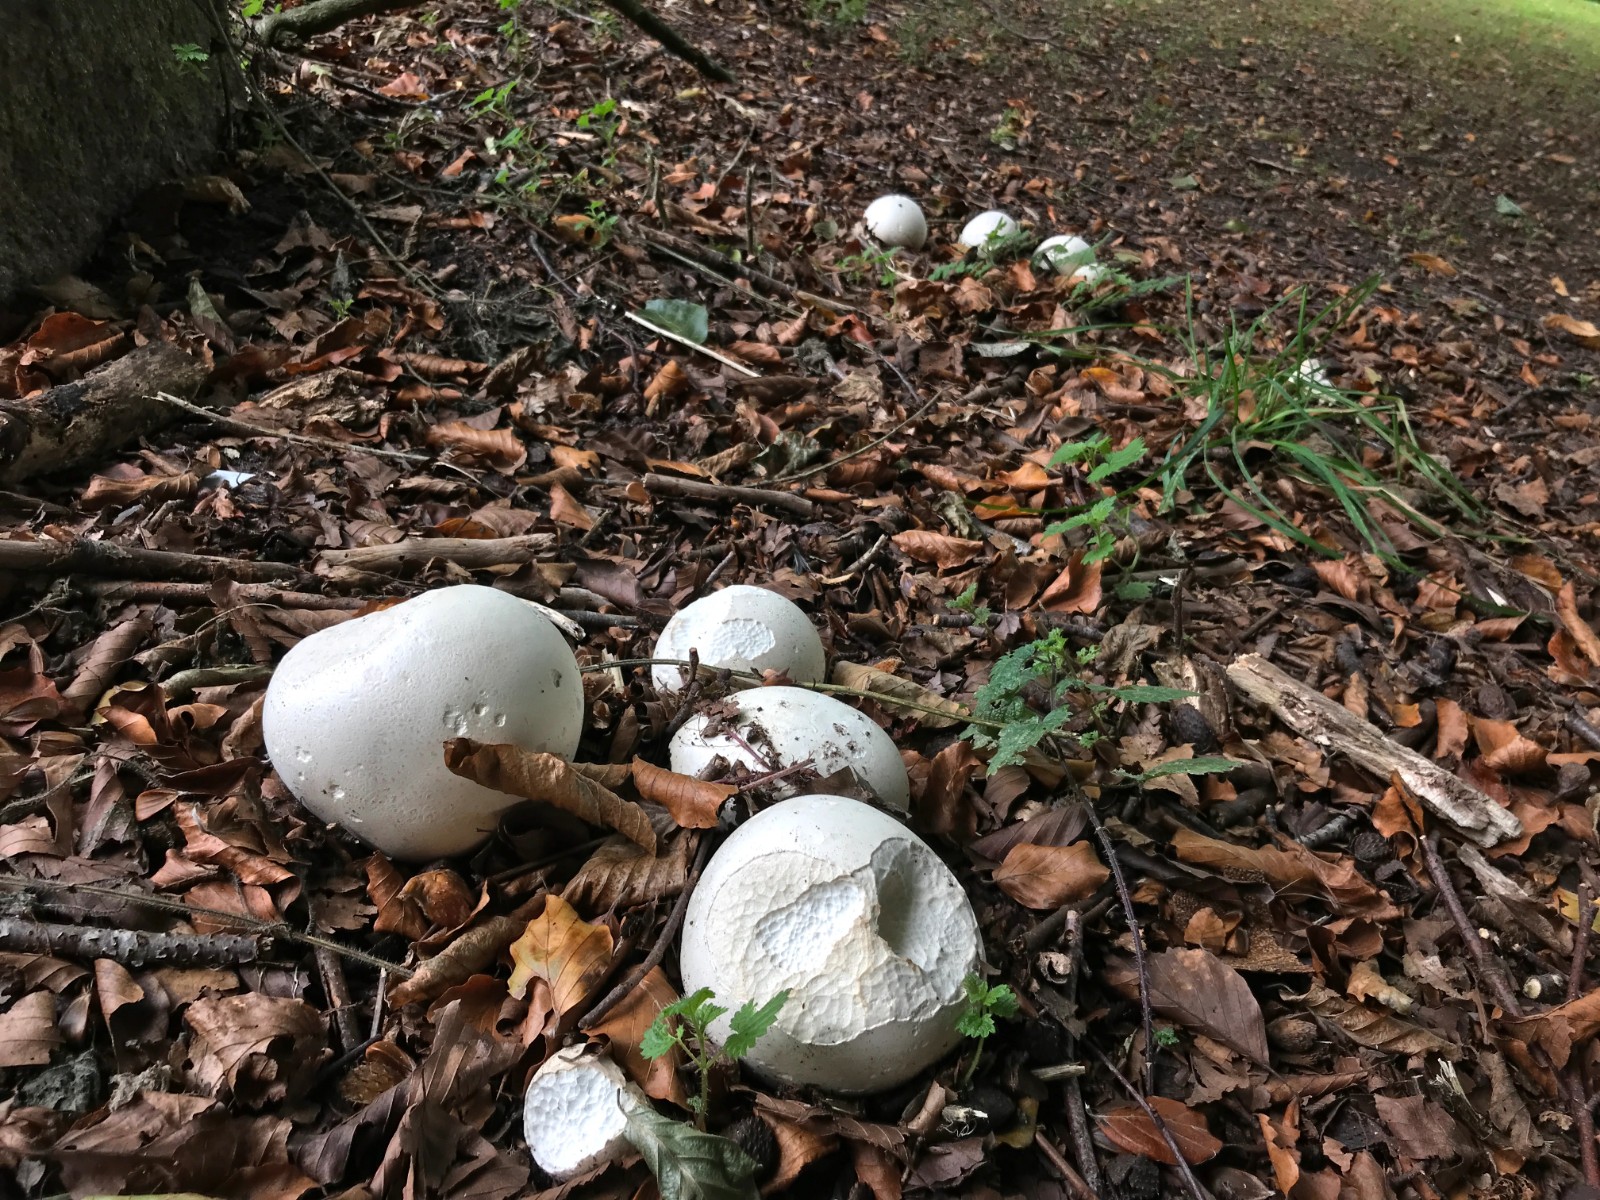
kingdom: Fungi
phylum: Basidiomycota
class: Agaricomycetes
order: Agaricales
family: Lycoperdaceae
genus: Calvatia
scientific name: Calvatia gigantea
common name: kæmpestøvbold
